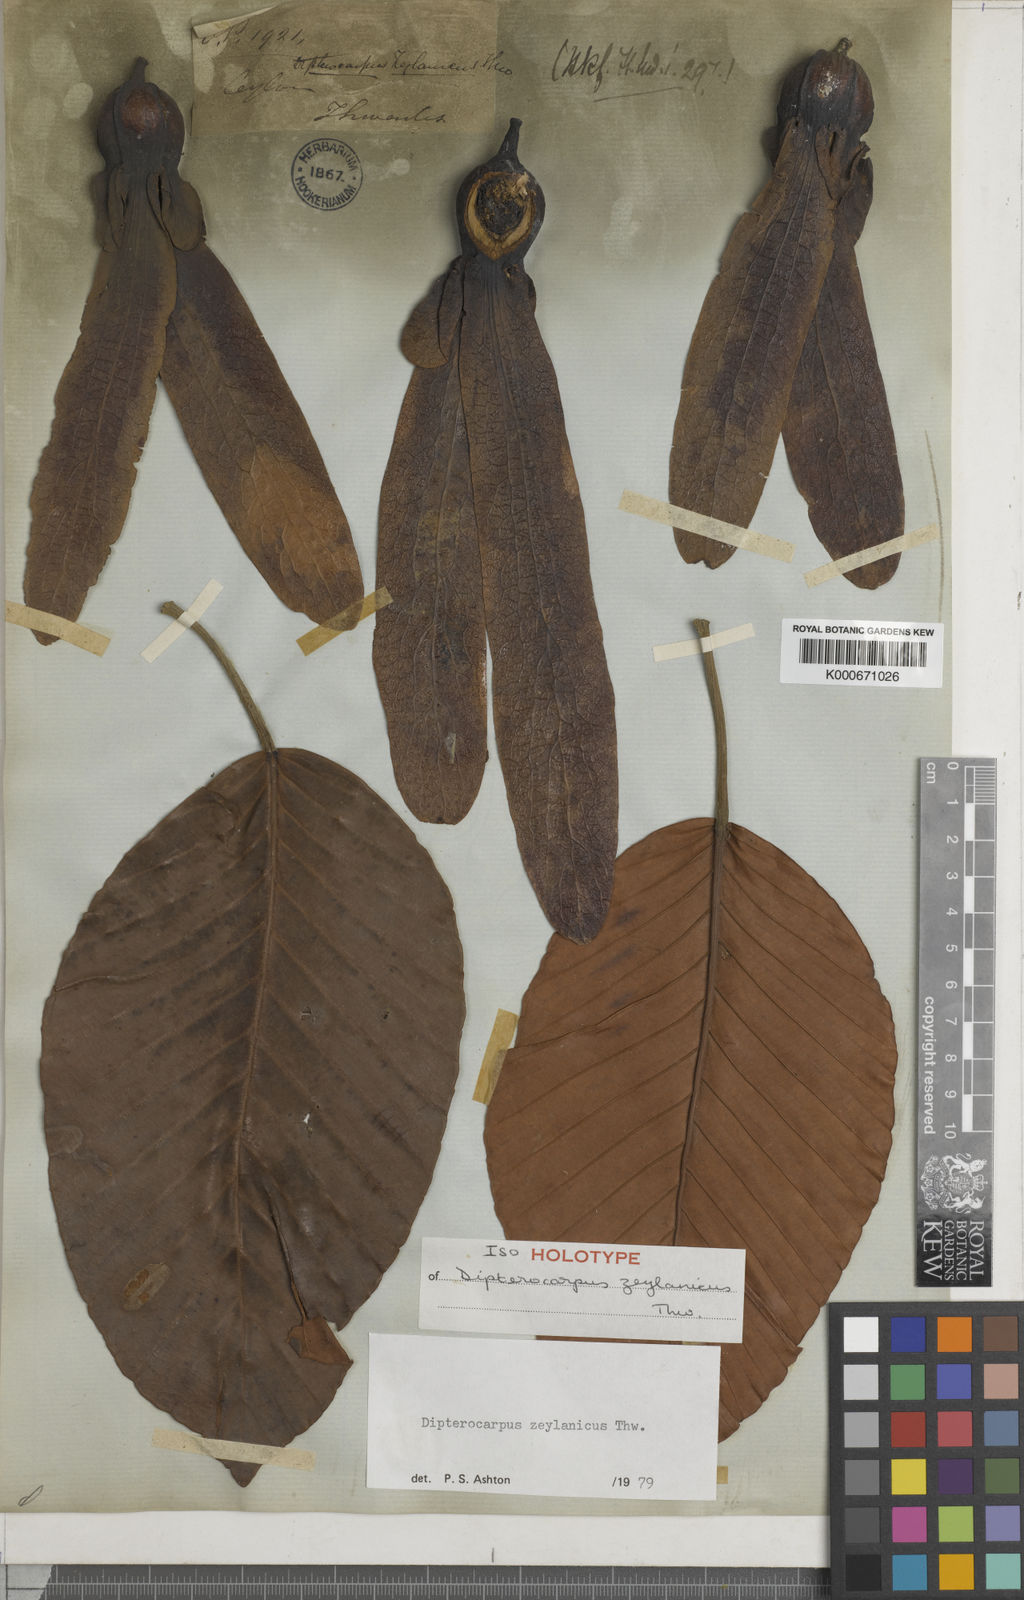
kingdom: Plantae
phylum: Tracheophyta
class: Magnoliopsida
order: Malvales
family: Dipterocarpaceae
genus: Dipterocarpus
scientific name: Dipterocarpus zeylanicus
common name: Hora
